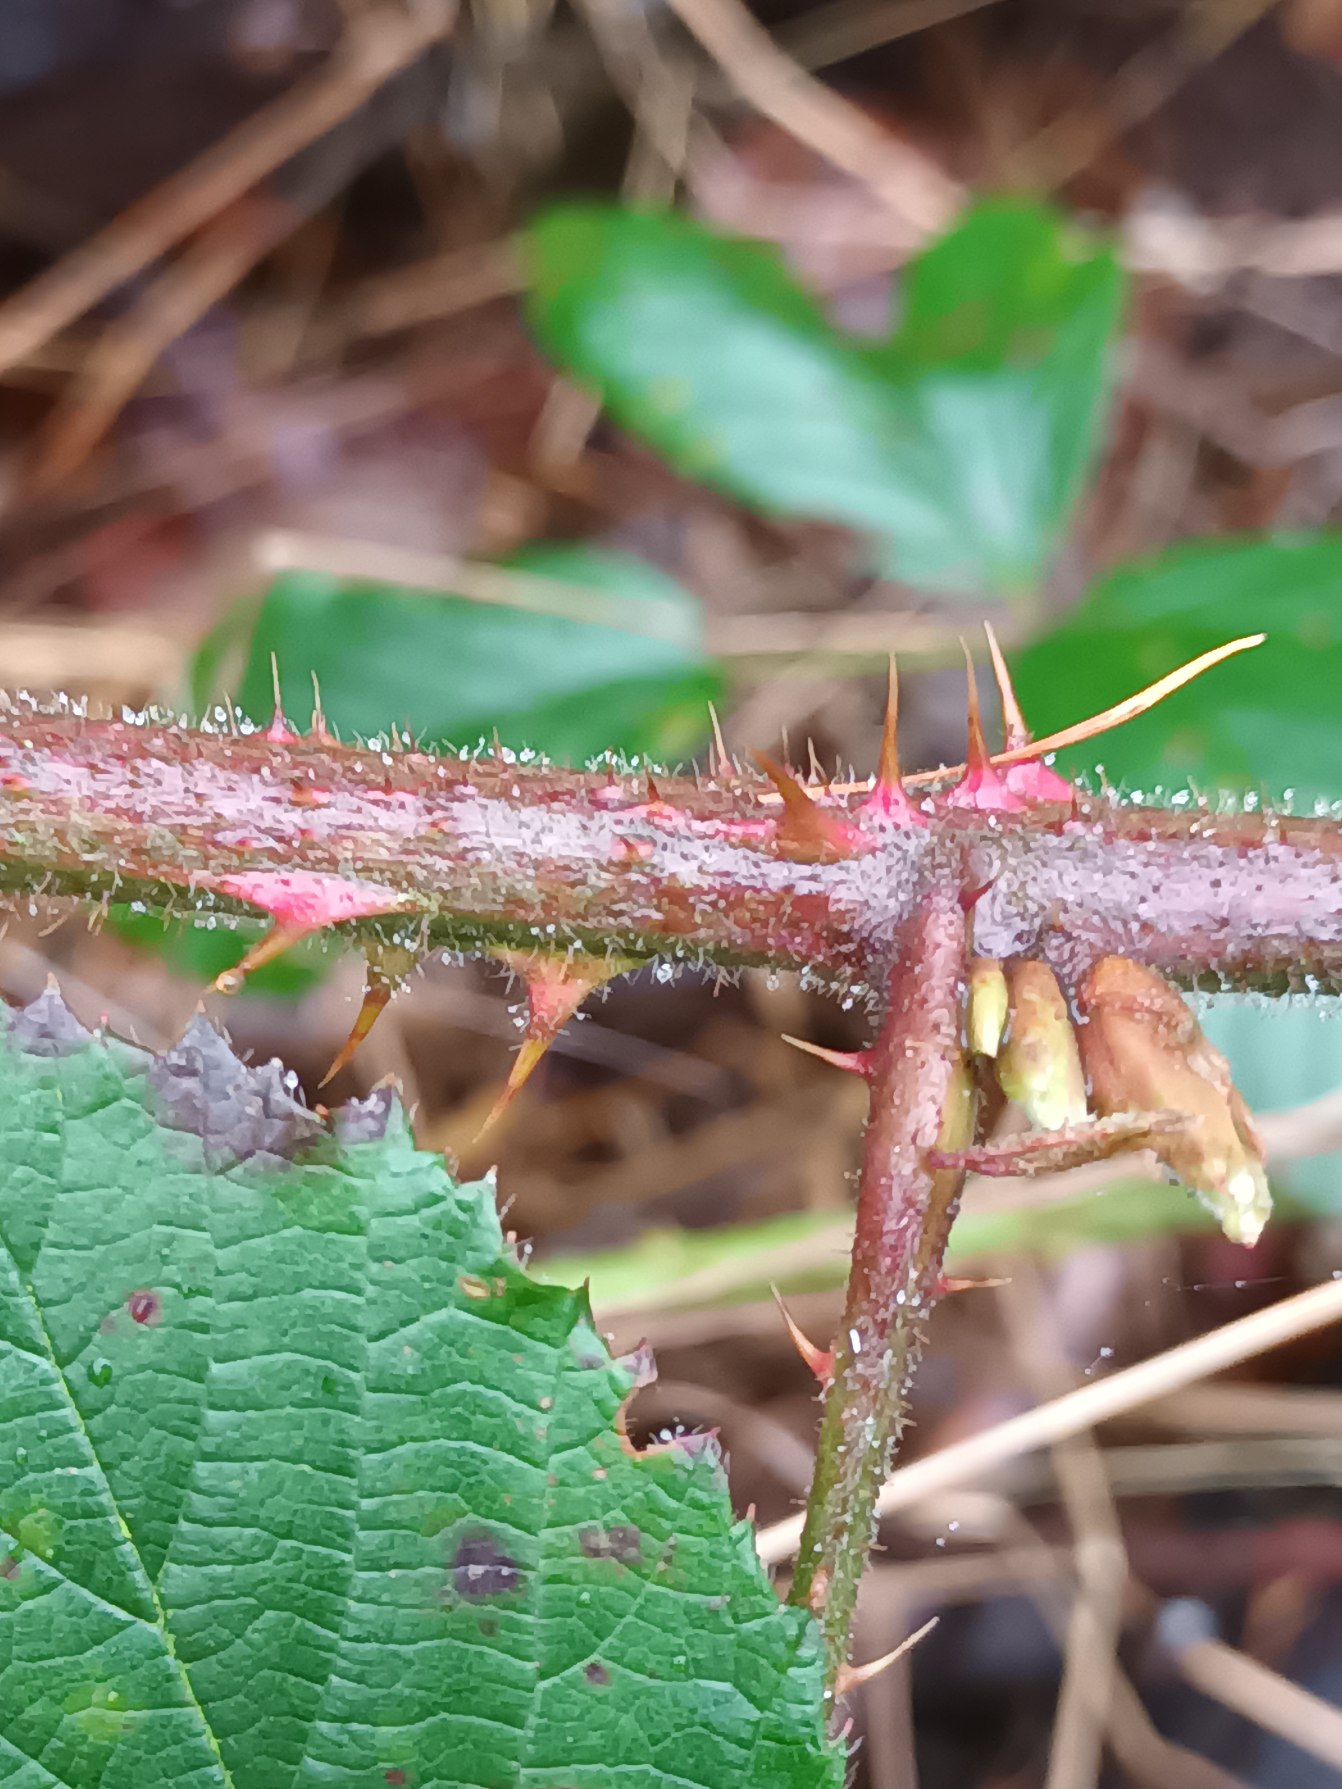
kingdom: Plantae
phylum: Tracheophyta
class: Magnoliopsida
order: Rosales
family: Rosaceae
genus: Rubus
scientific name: Rubus dasyphyllus
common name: Tykbladet brombær
